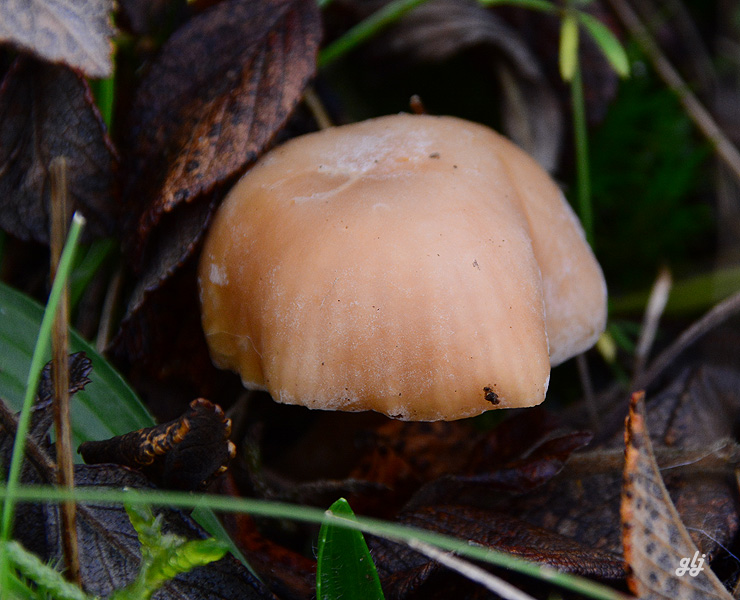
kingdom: Fungi
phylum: Basidiomycota
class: Agaricomycetes
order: Agaricales
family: Hygrophoraceae
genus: Cuphophyllus
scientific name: Cuphophyllus pratensis
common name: eng-vokshat
